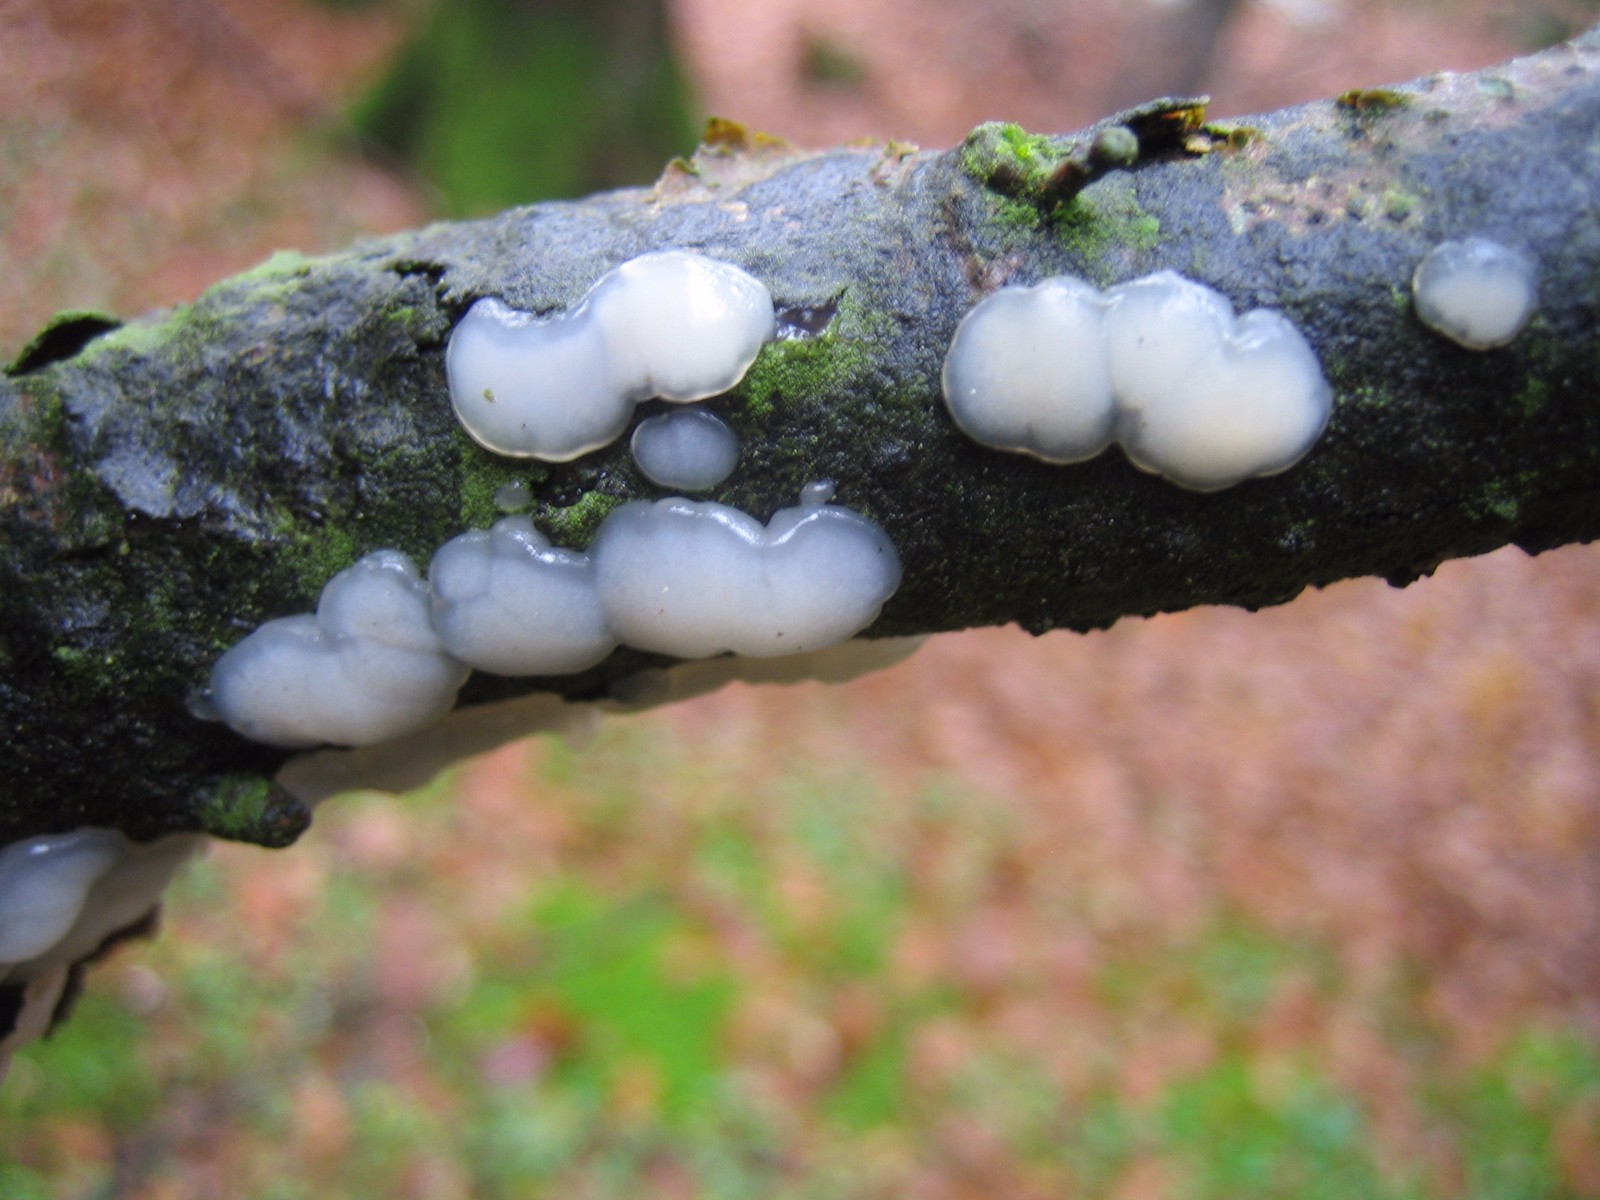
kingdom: Fungi
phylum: Basidiomycota
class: Agaricomycetes
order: Auriculariales
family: Auriculariaceae
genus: Exidia
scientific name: Exidia thuretiana
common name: hvidlig bævretop
